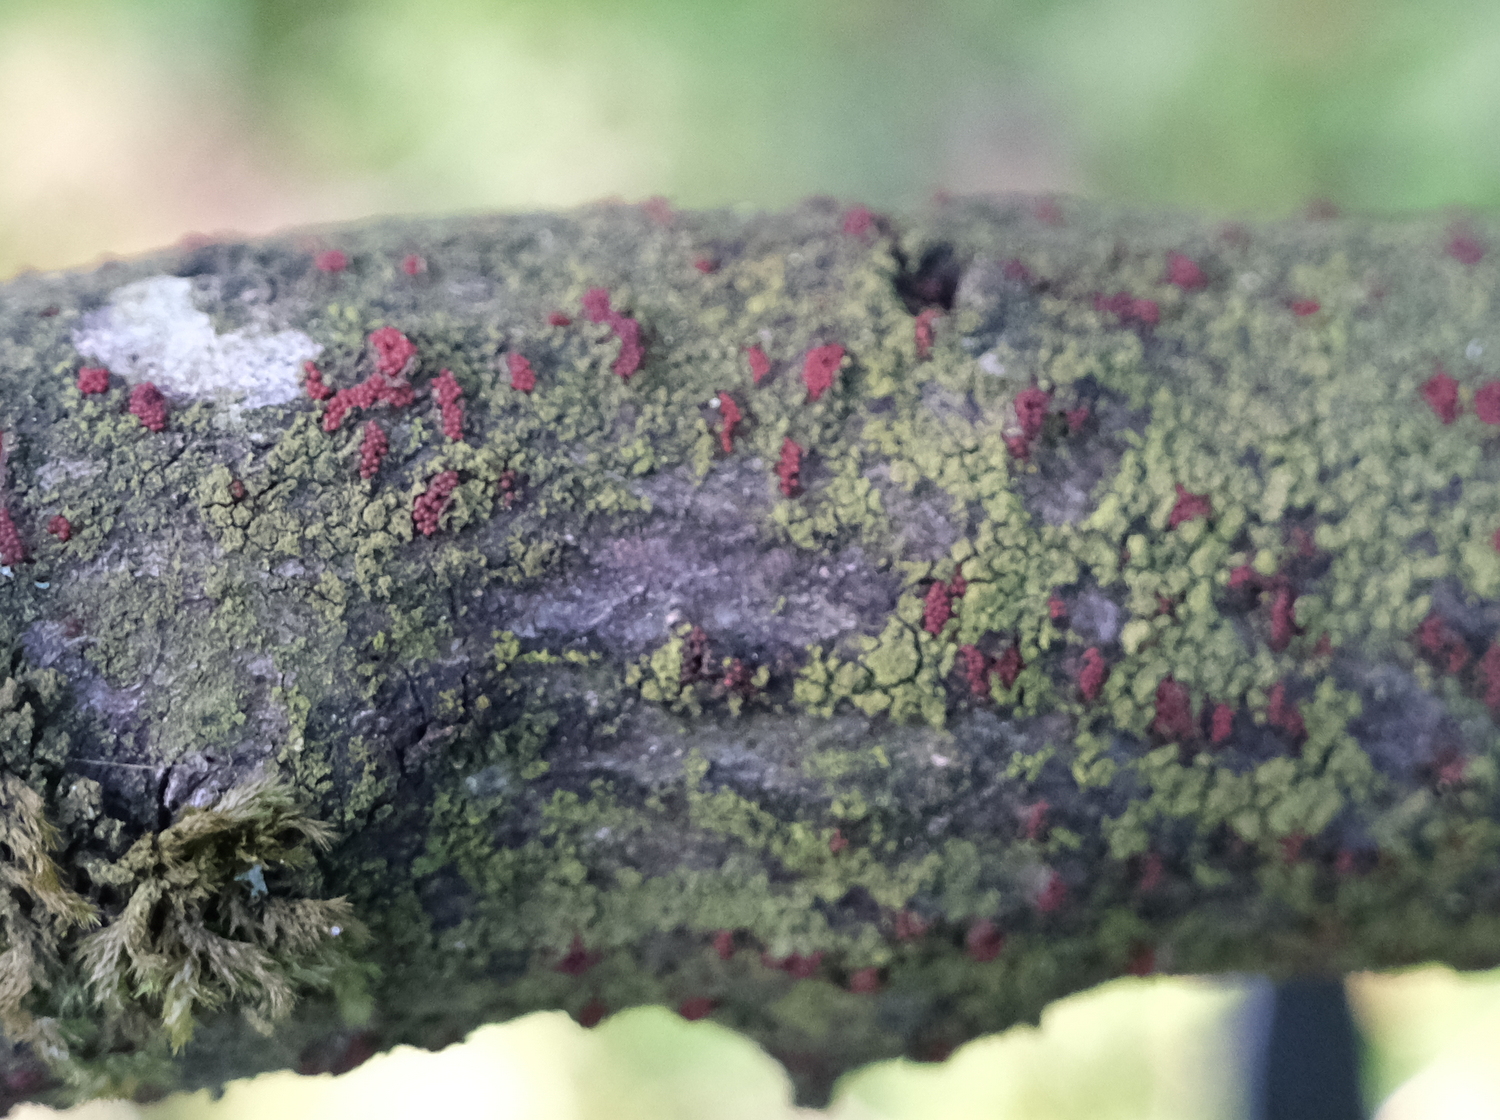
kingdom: Fungi
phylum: Ascomycota
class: Sordariomycetes
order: Hypocreales
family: Nectriaceae
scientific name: Nectriaceae
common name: cinnobersvampfamilien
